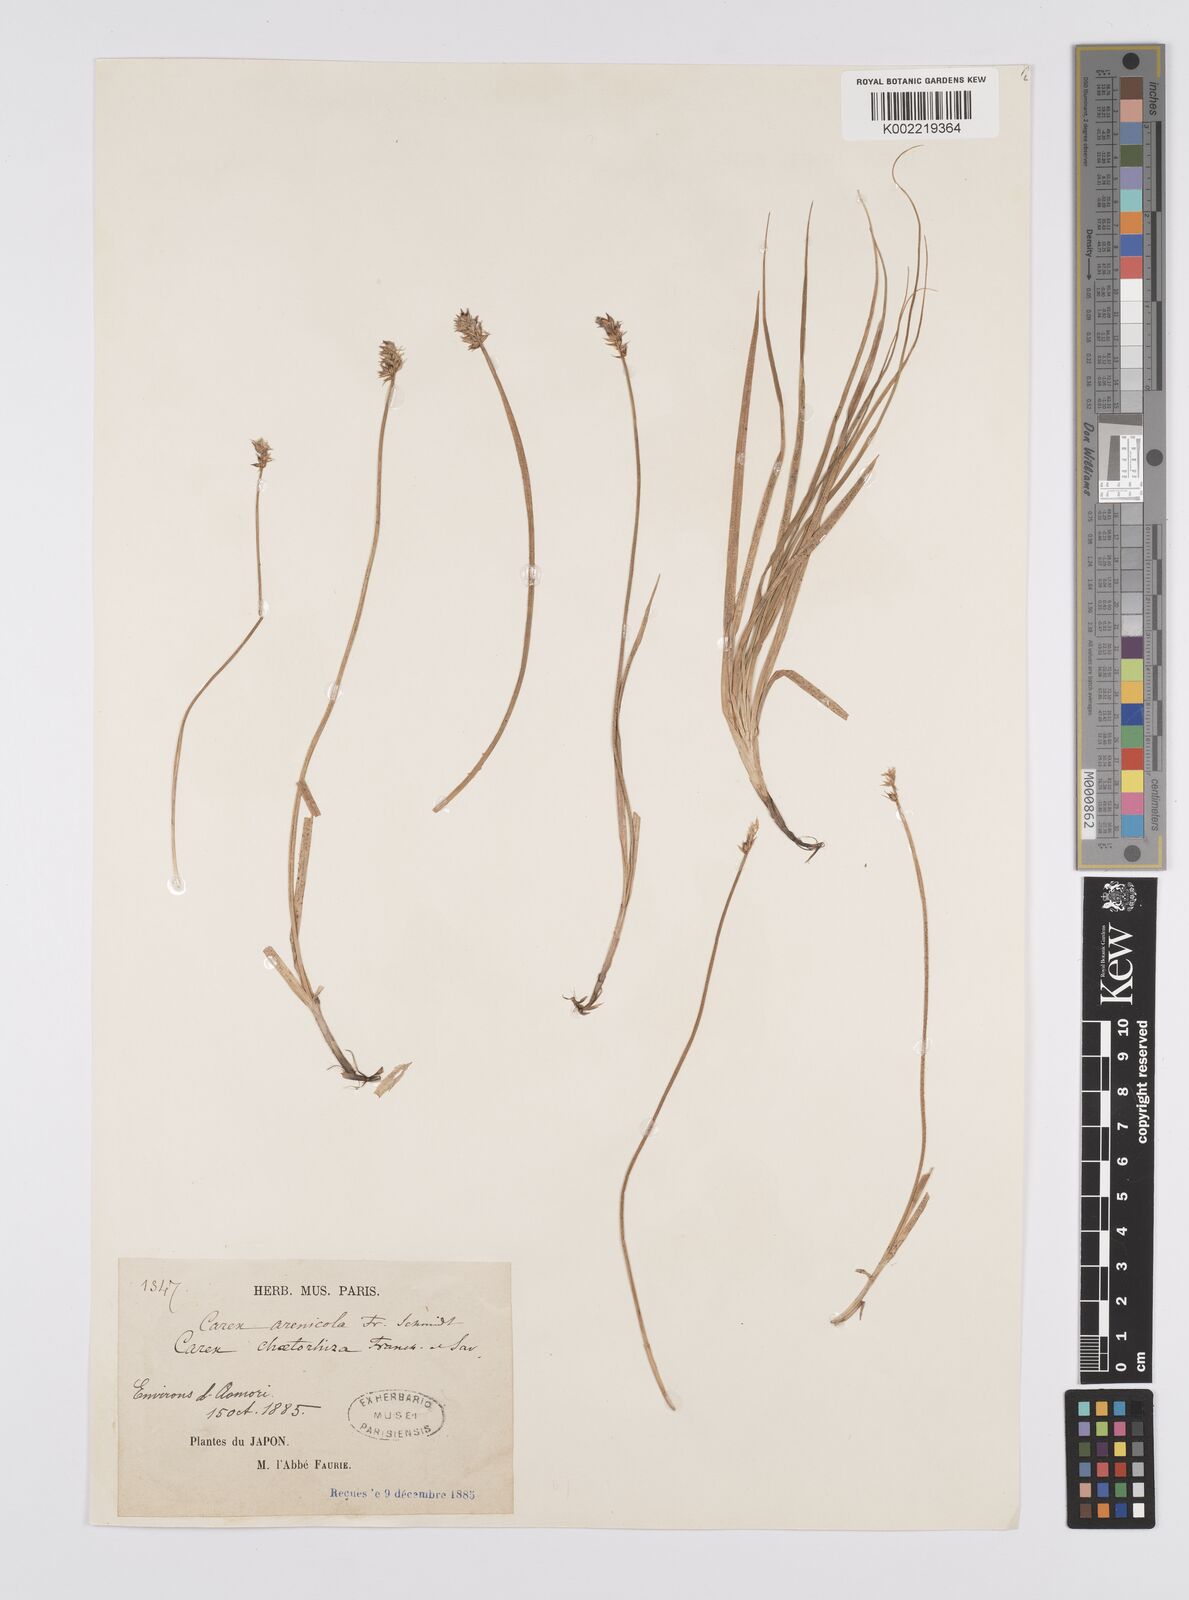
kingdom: Plantae
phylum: Tracheophyta
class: Liliopsida
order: Poales
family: Cyperaceae
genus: Carex
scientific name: Carex arenicola
